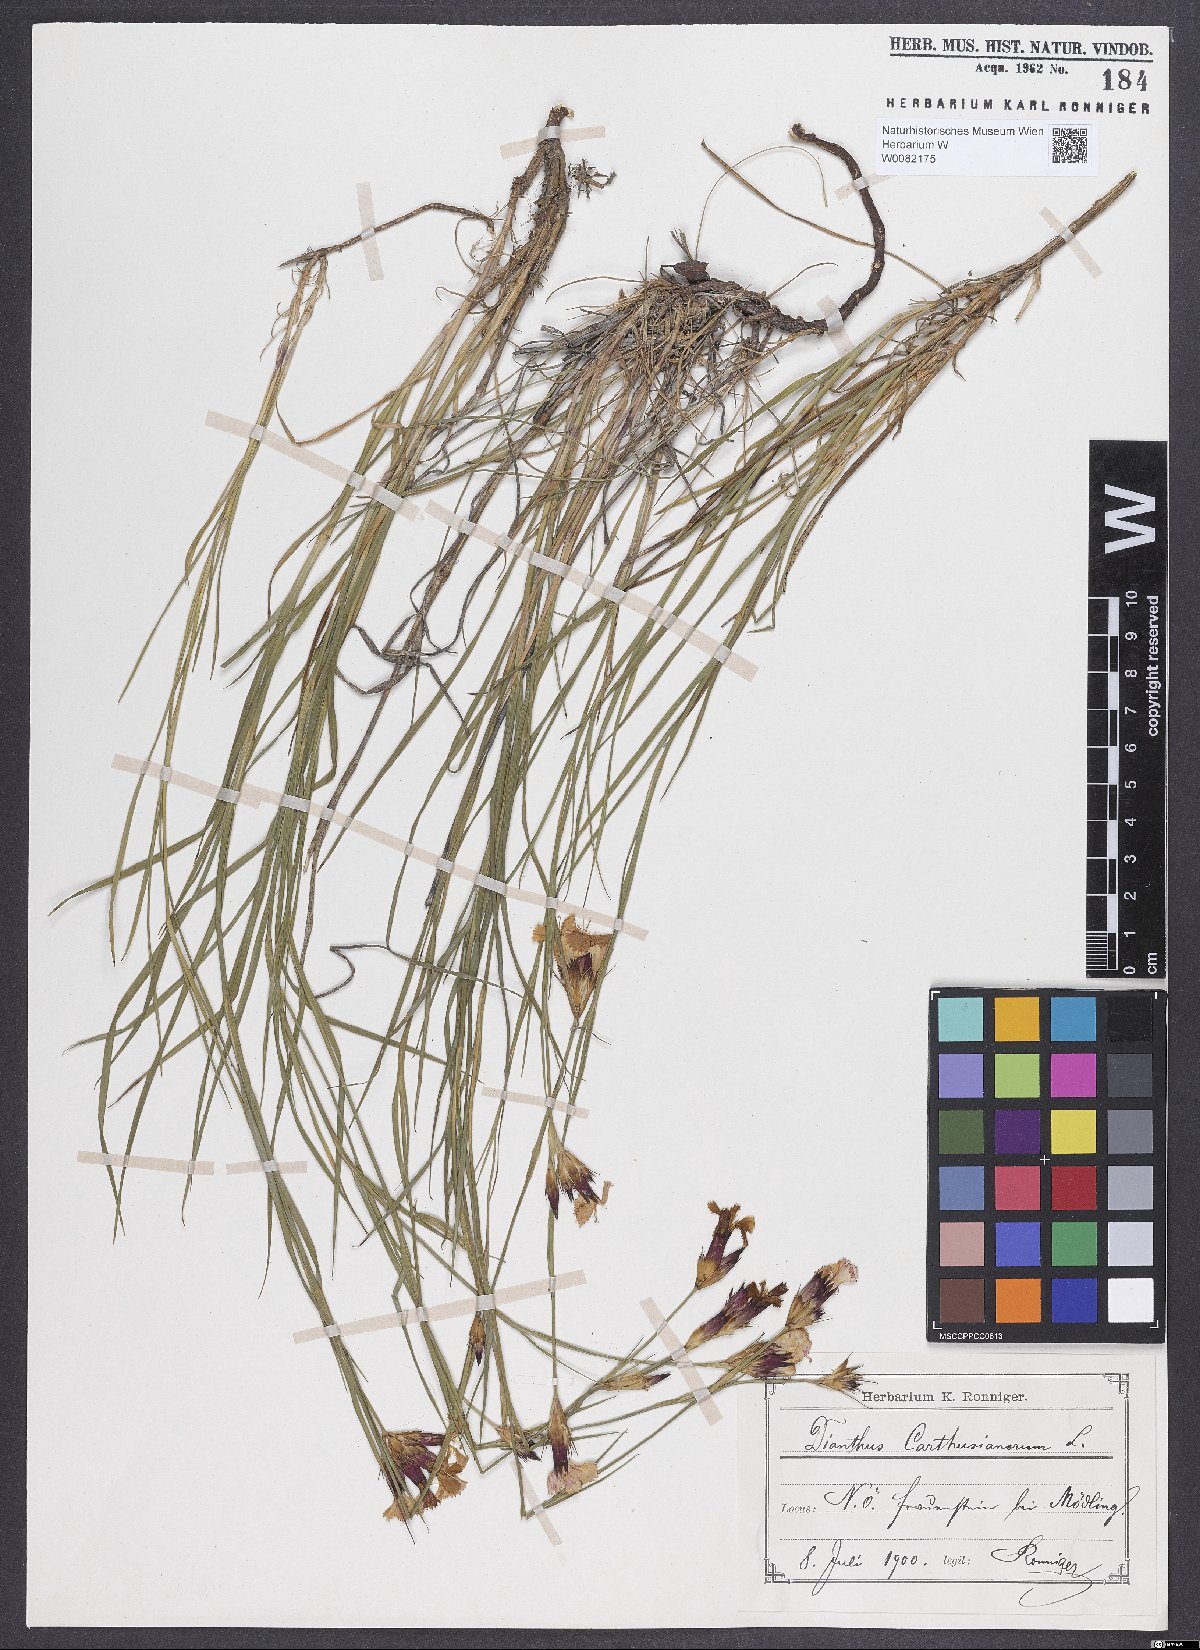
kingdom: Plantae
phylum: Tracheophyta
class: Magnoliopsida
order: Caryophyllales
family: Caryophyllaceae
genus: Dianthus
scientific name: Dianthus carthusianorum
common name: Carthusian pink
